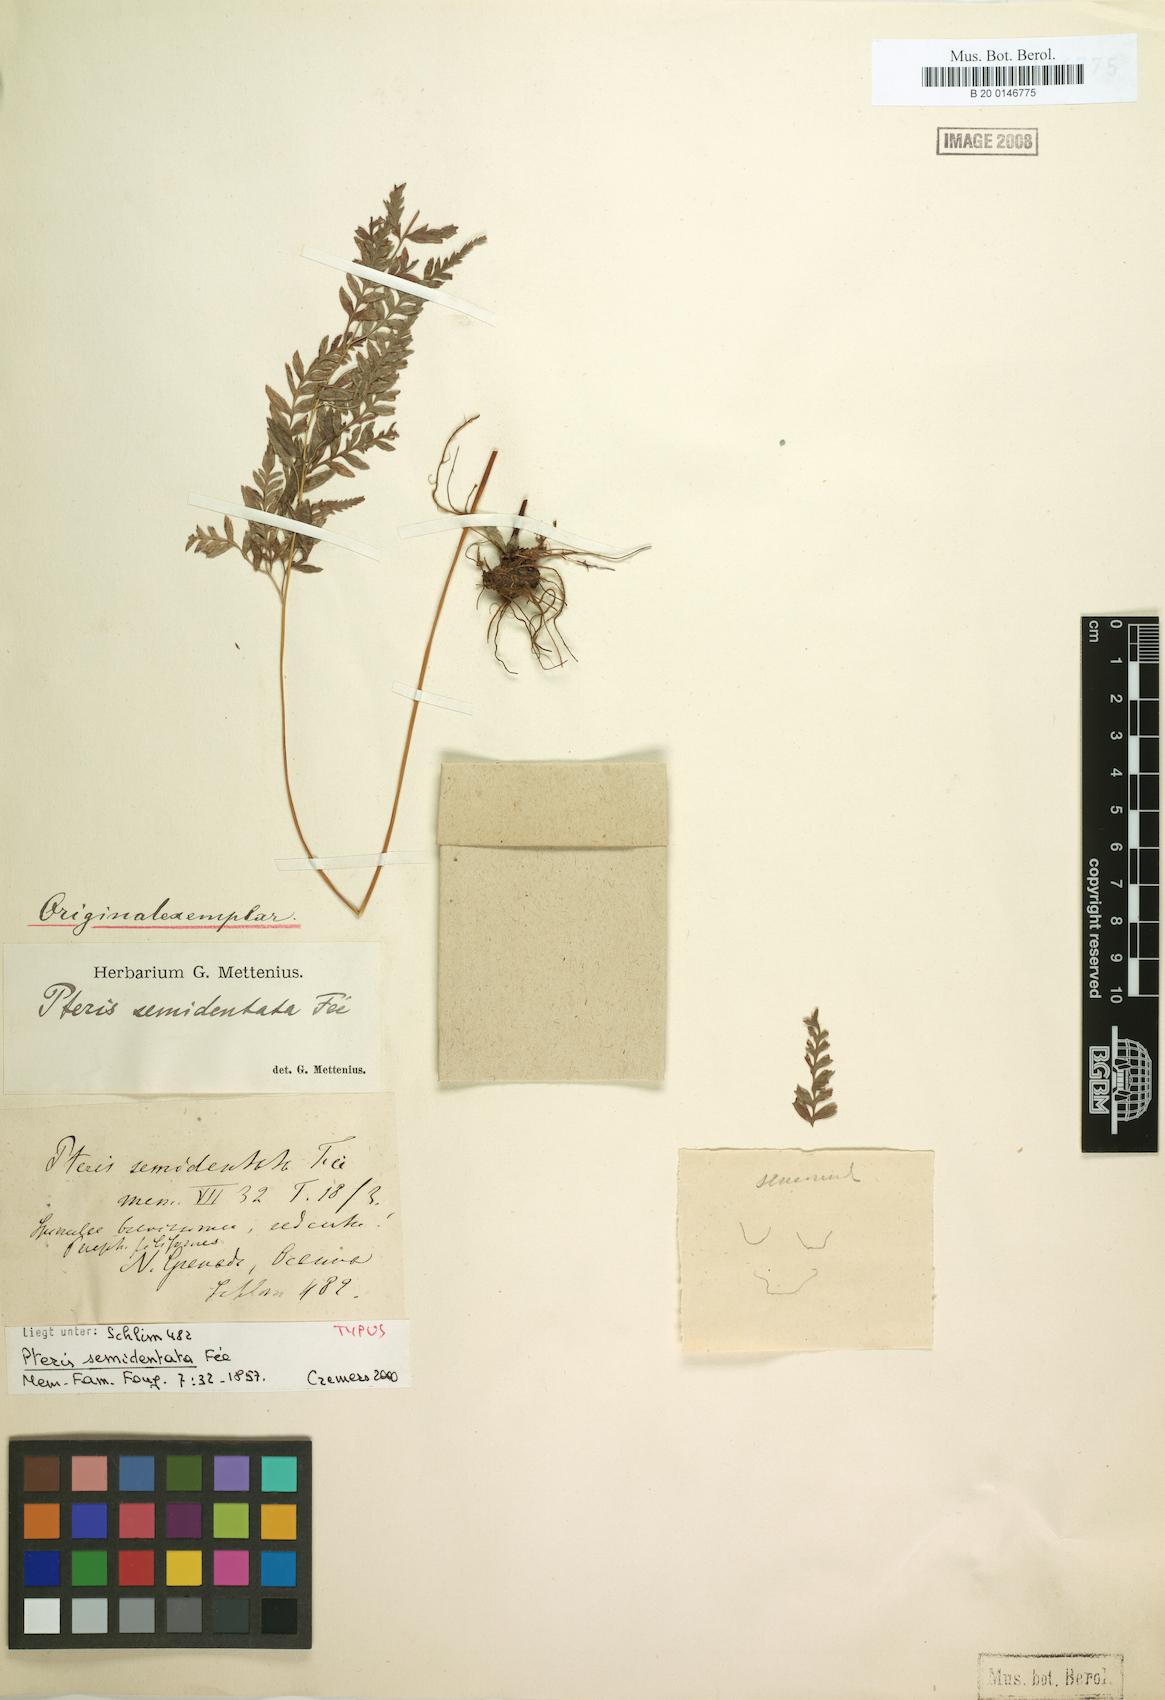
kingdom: Plantae
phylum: Tracheophyta
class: Polypodiopsida
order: Polypodiales
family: Pteridaceae
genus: Pteris
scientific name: Pteris leptophylla
